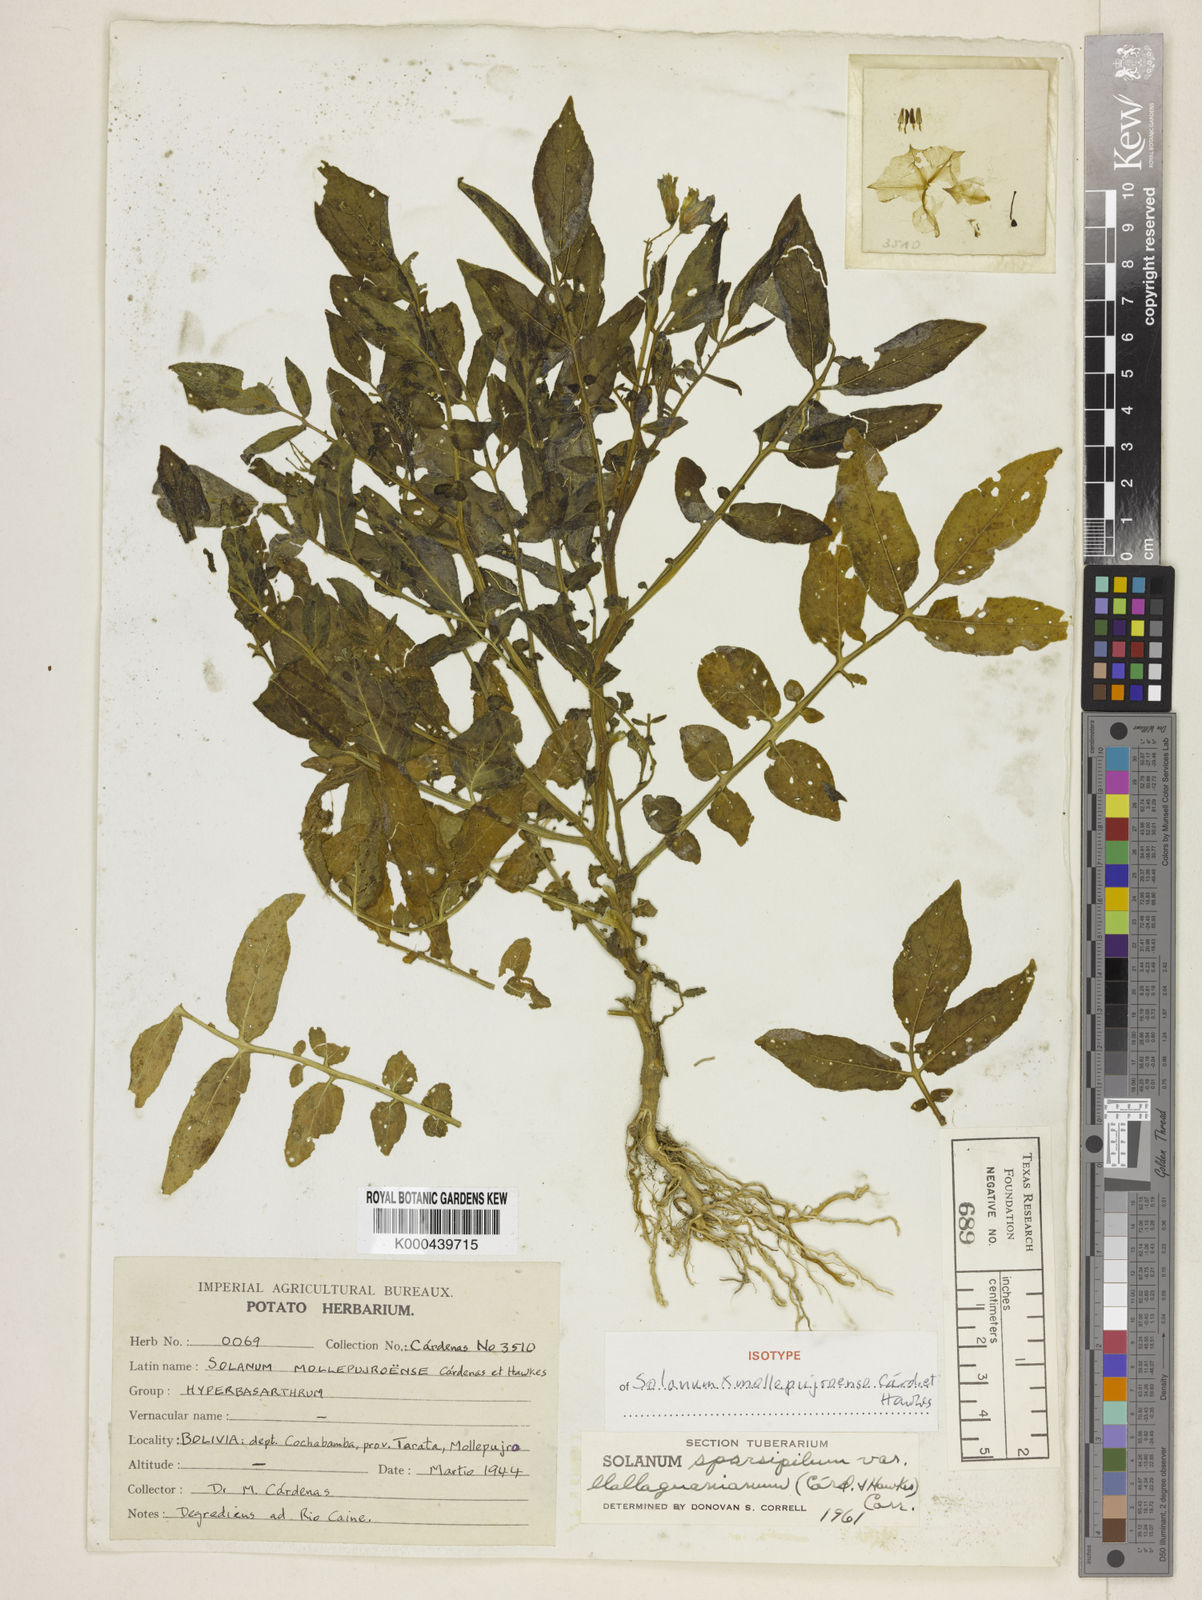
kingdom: Plantae
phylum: Tracheophyta
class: Magnoliopsida
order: Solanales
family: Solanaceae
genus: Solanum
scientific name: Solanum brevicaule
